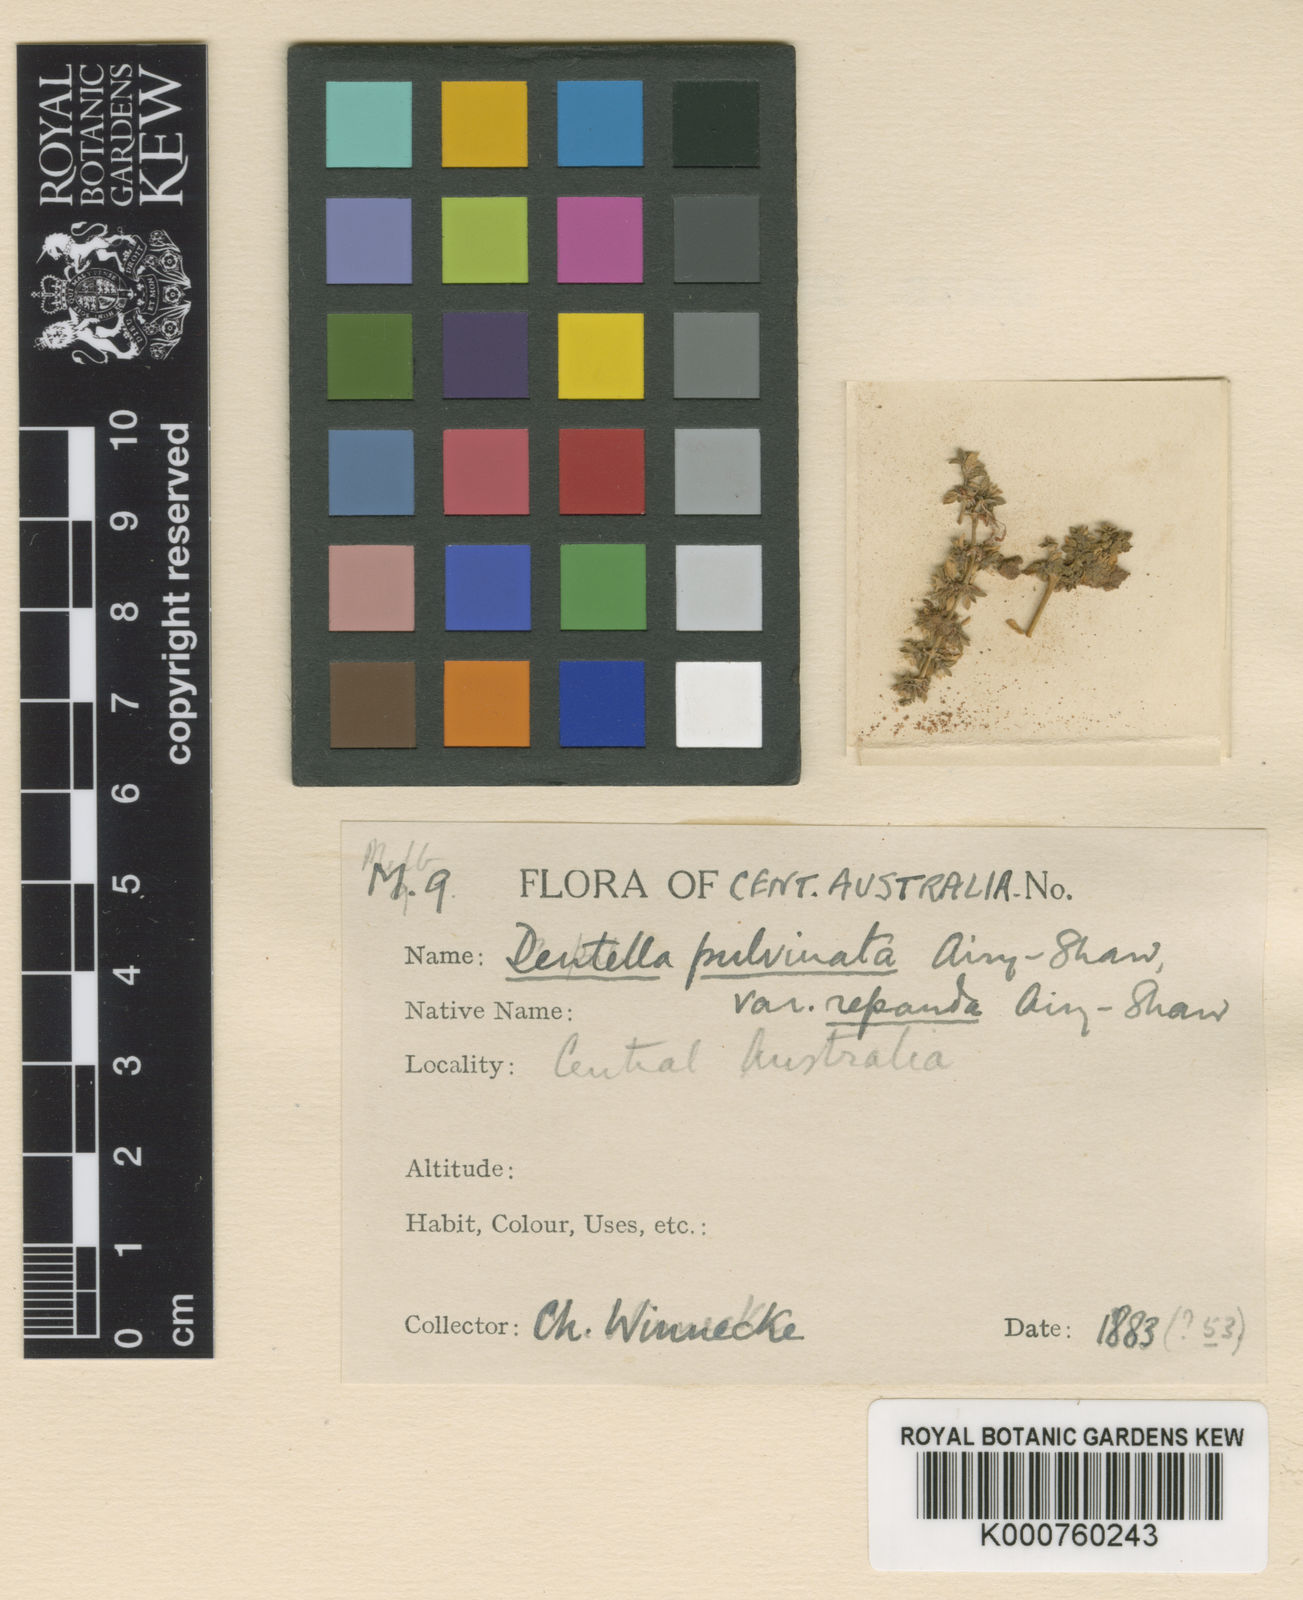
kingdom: Plantae
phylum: Tracheophyta
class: Magnoliopsida
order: Gentianales
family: Rubiaceae
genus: Dentella
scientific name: Dentella pulvinata
